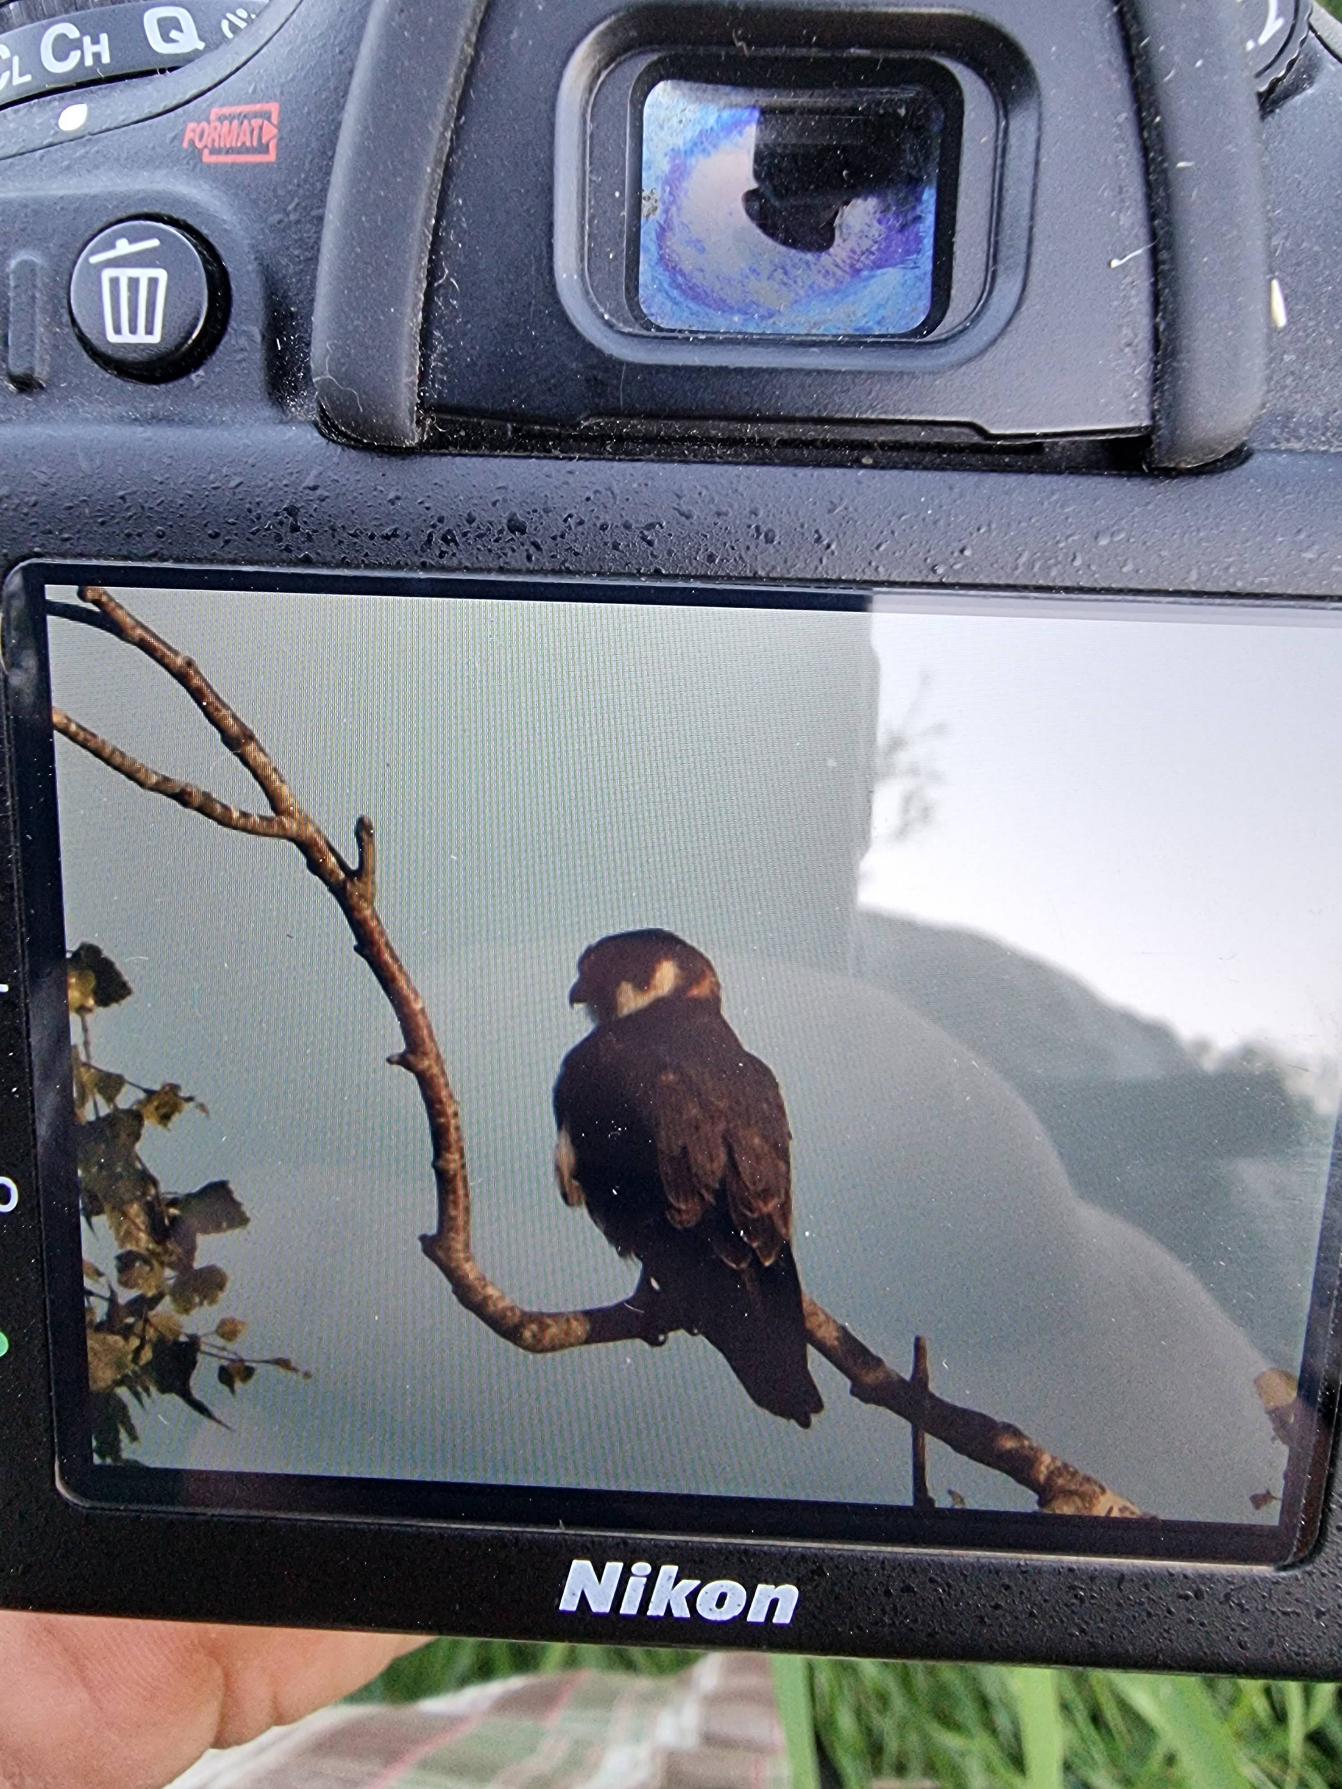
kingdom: Animalia
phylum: Chordata
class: Aves
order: Falconiformes
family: Falconidae
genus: Falco
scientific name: Falco subbuteo
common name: Lærkefalk
